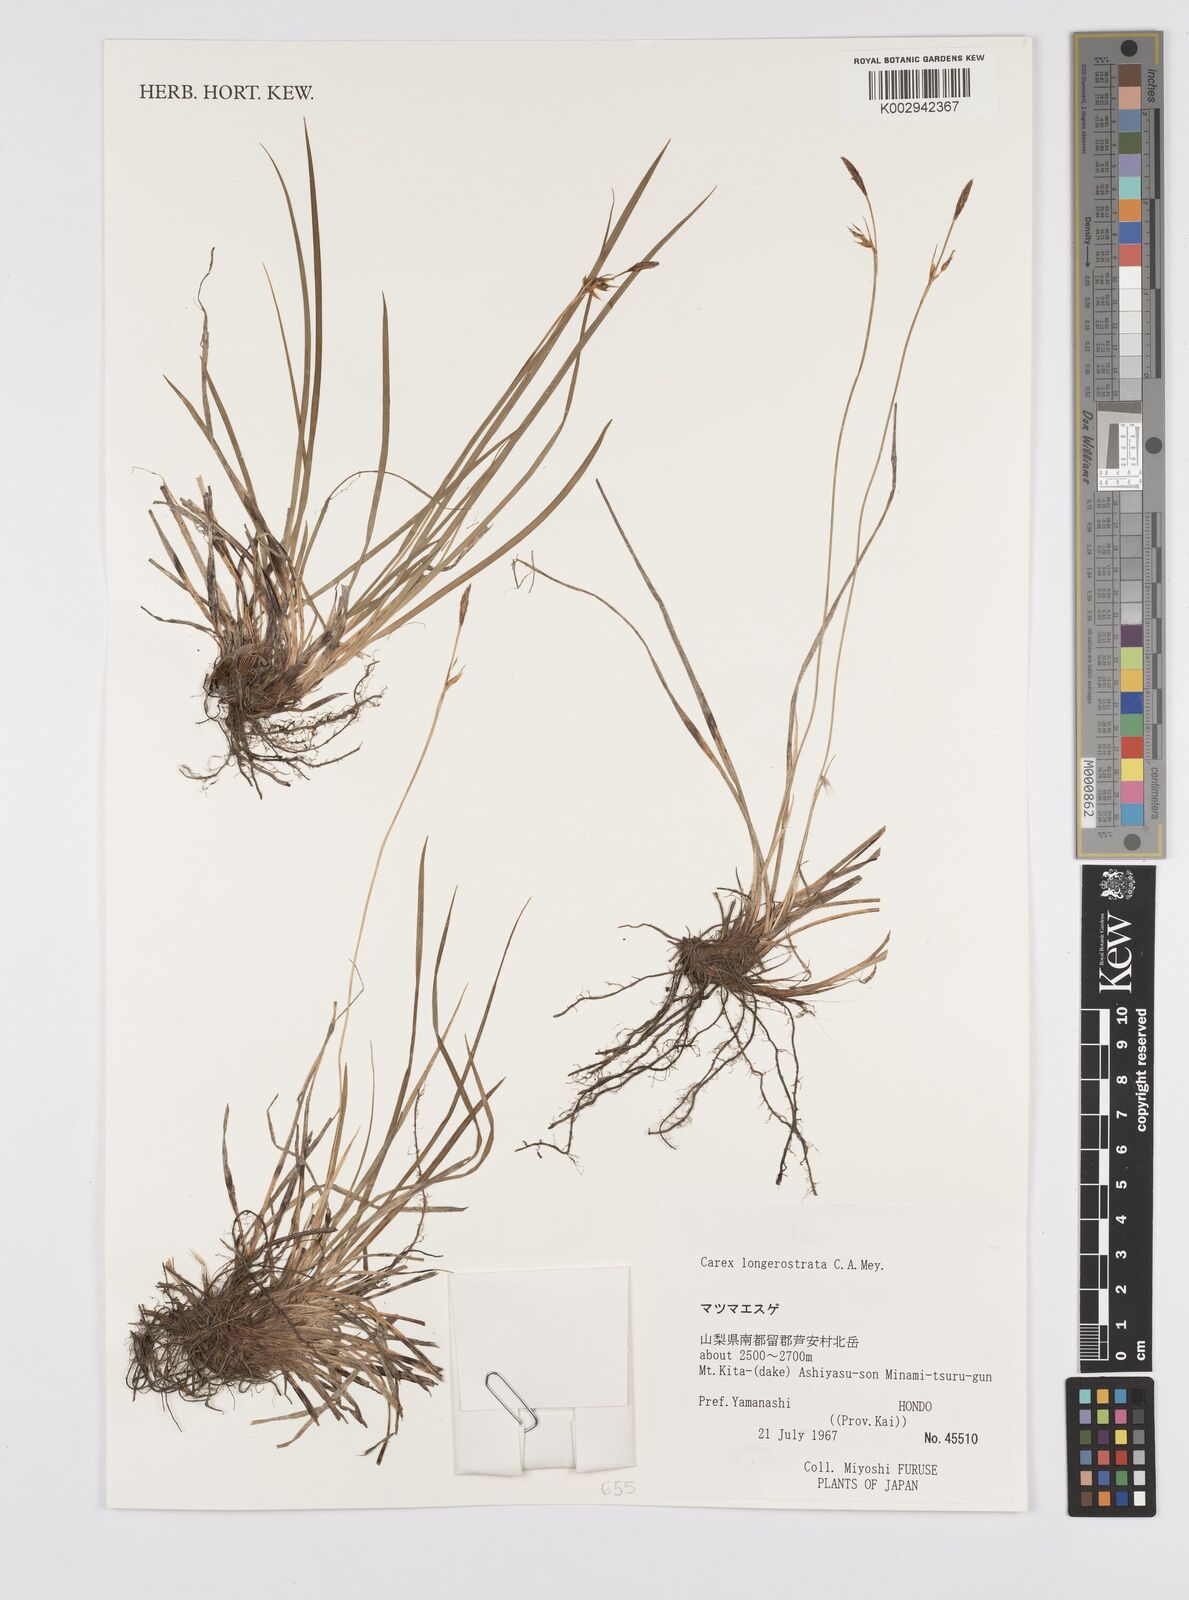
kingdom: Plantae
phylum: Tracheophyta
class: Liliopsida
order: Poales
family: Cyperaceae
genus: Carex
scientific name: Carex longerostrata
